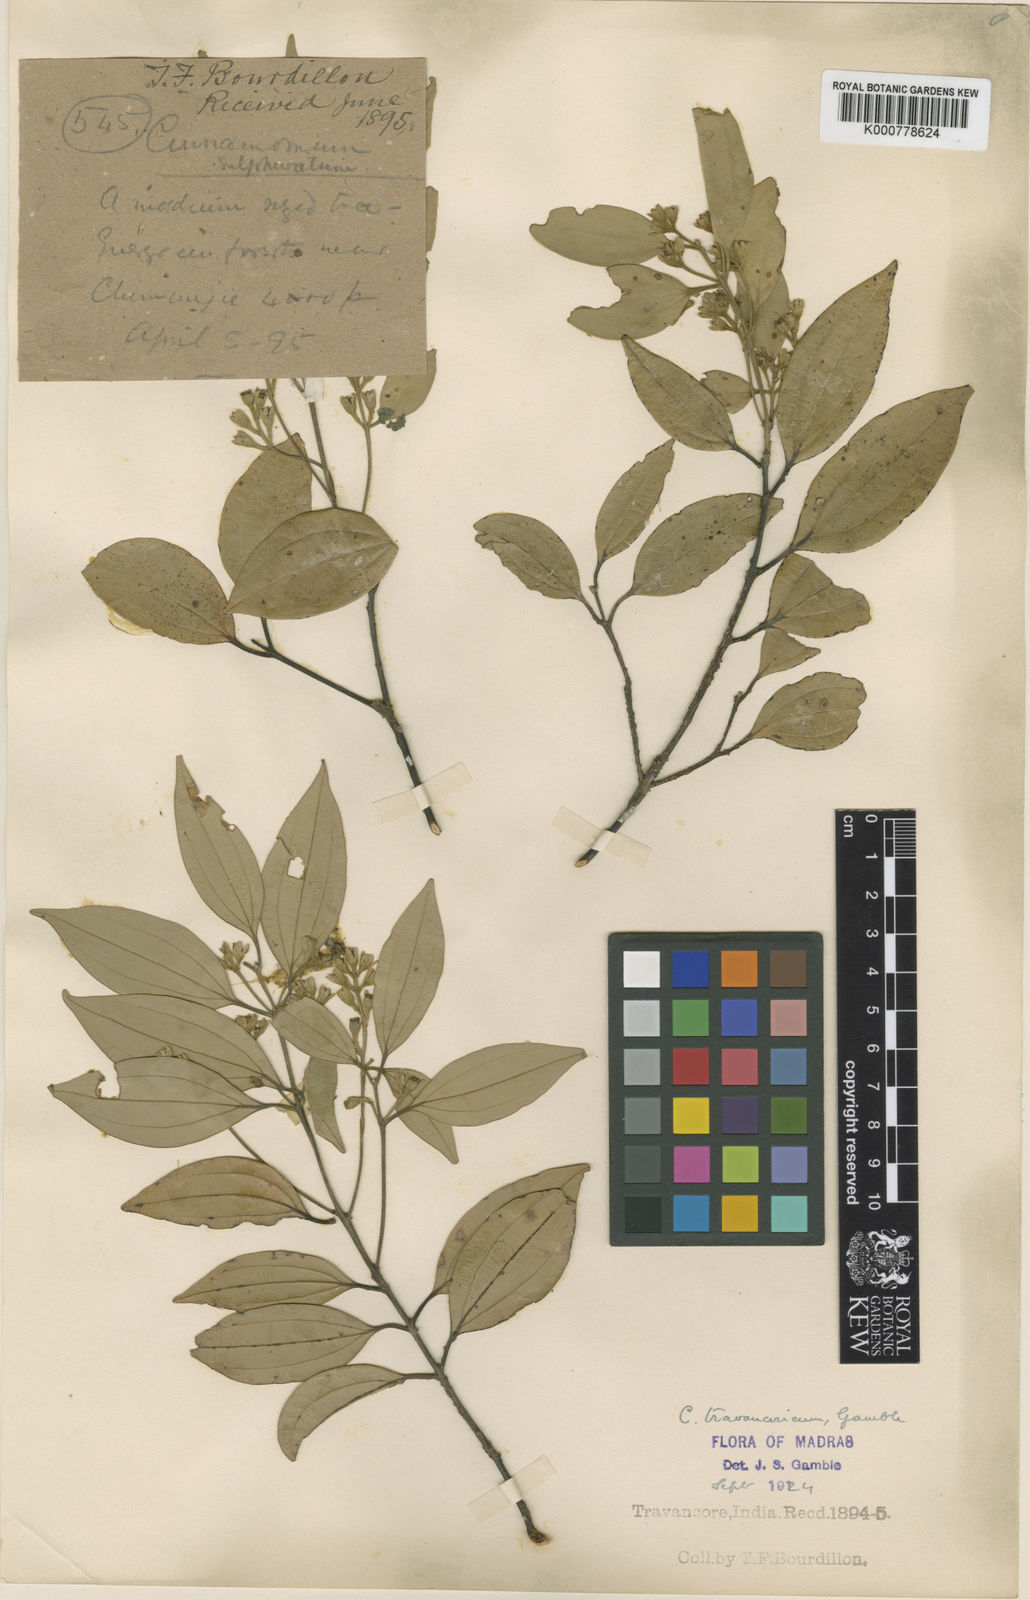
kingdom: Plantae
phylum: Tracheophyta
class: Magnoliopsida
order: Laurales
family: Lauraceae
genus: Cinnamomum
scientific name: Cinnamomum travancoricum
